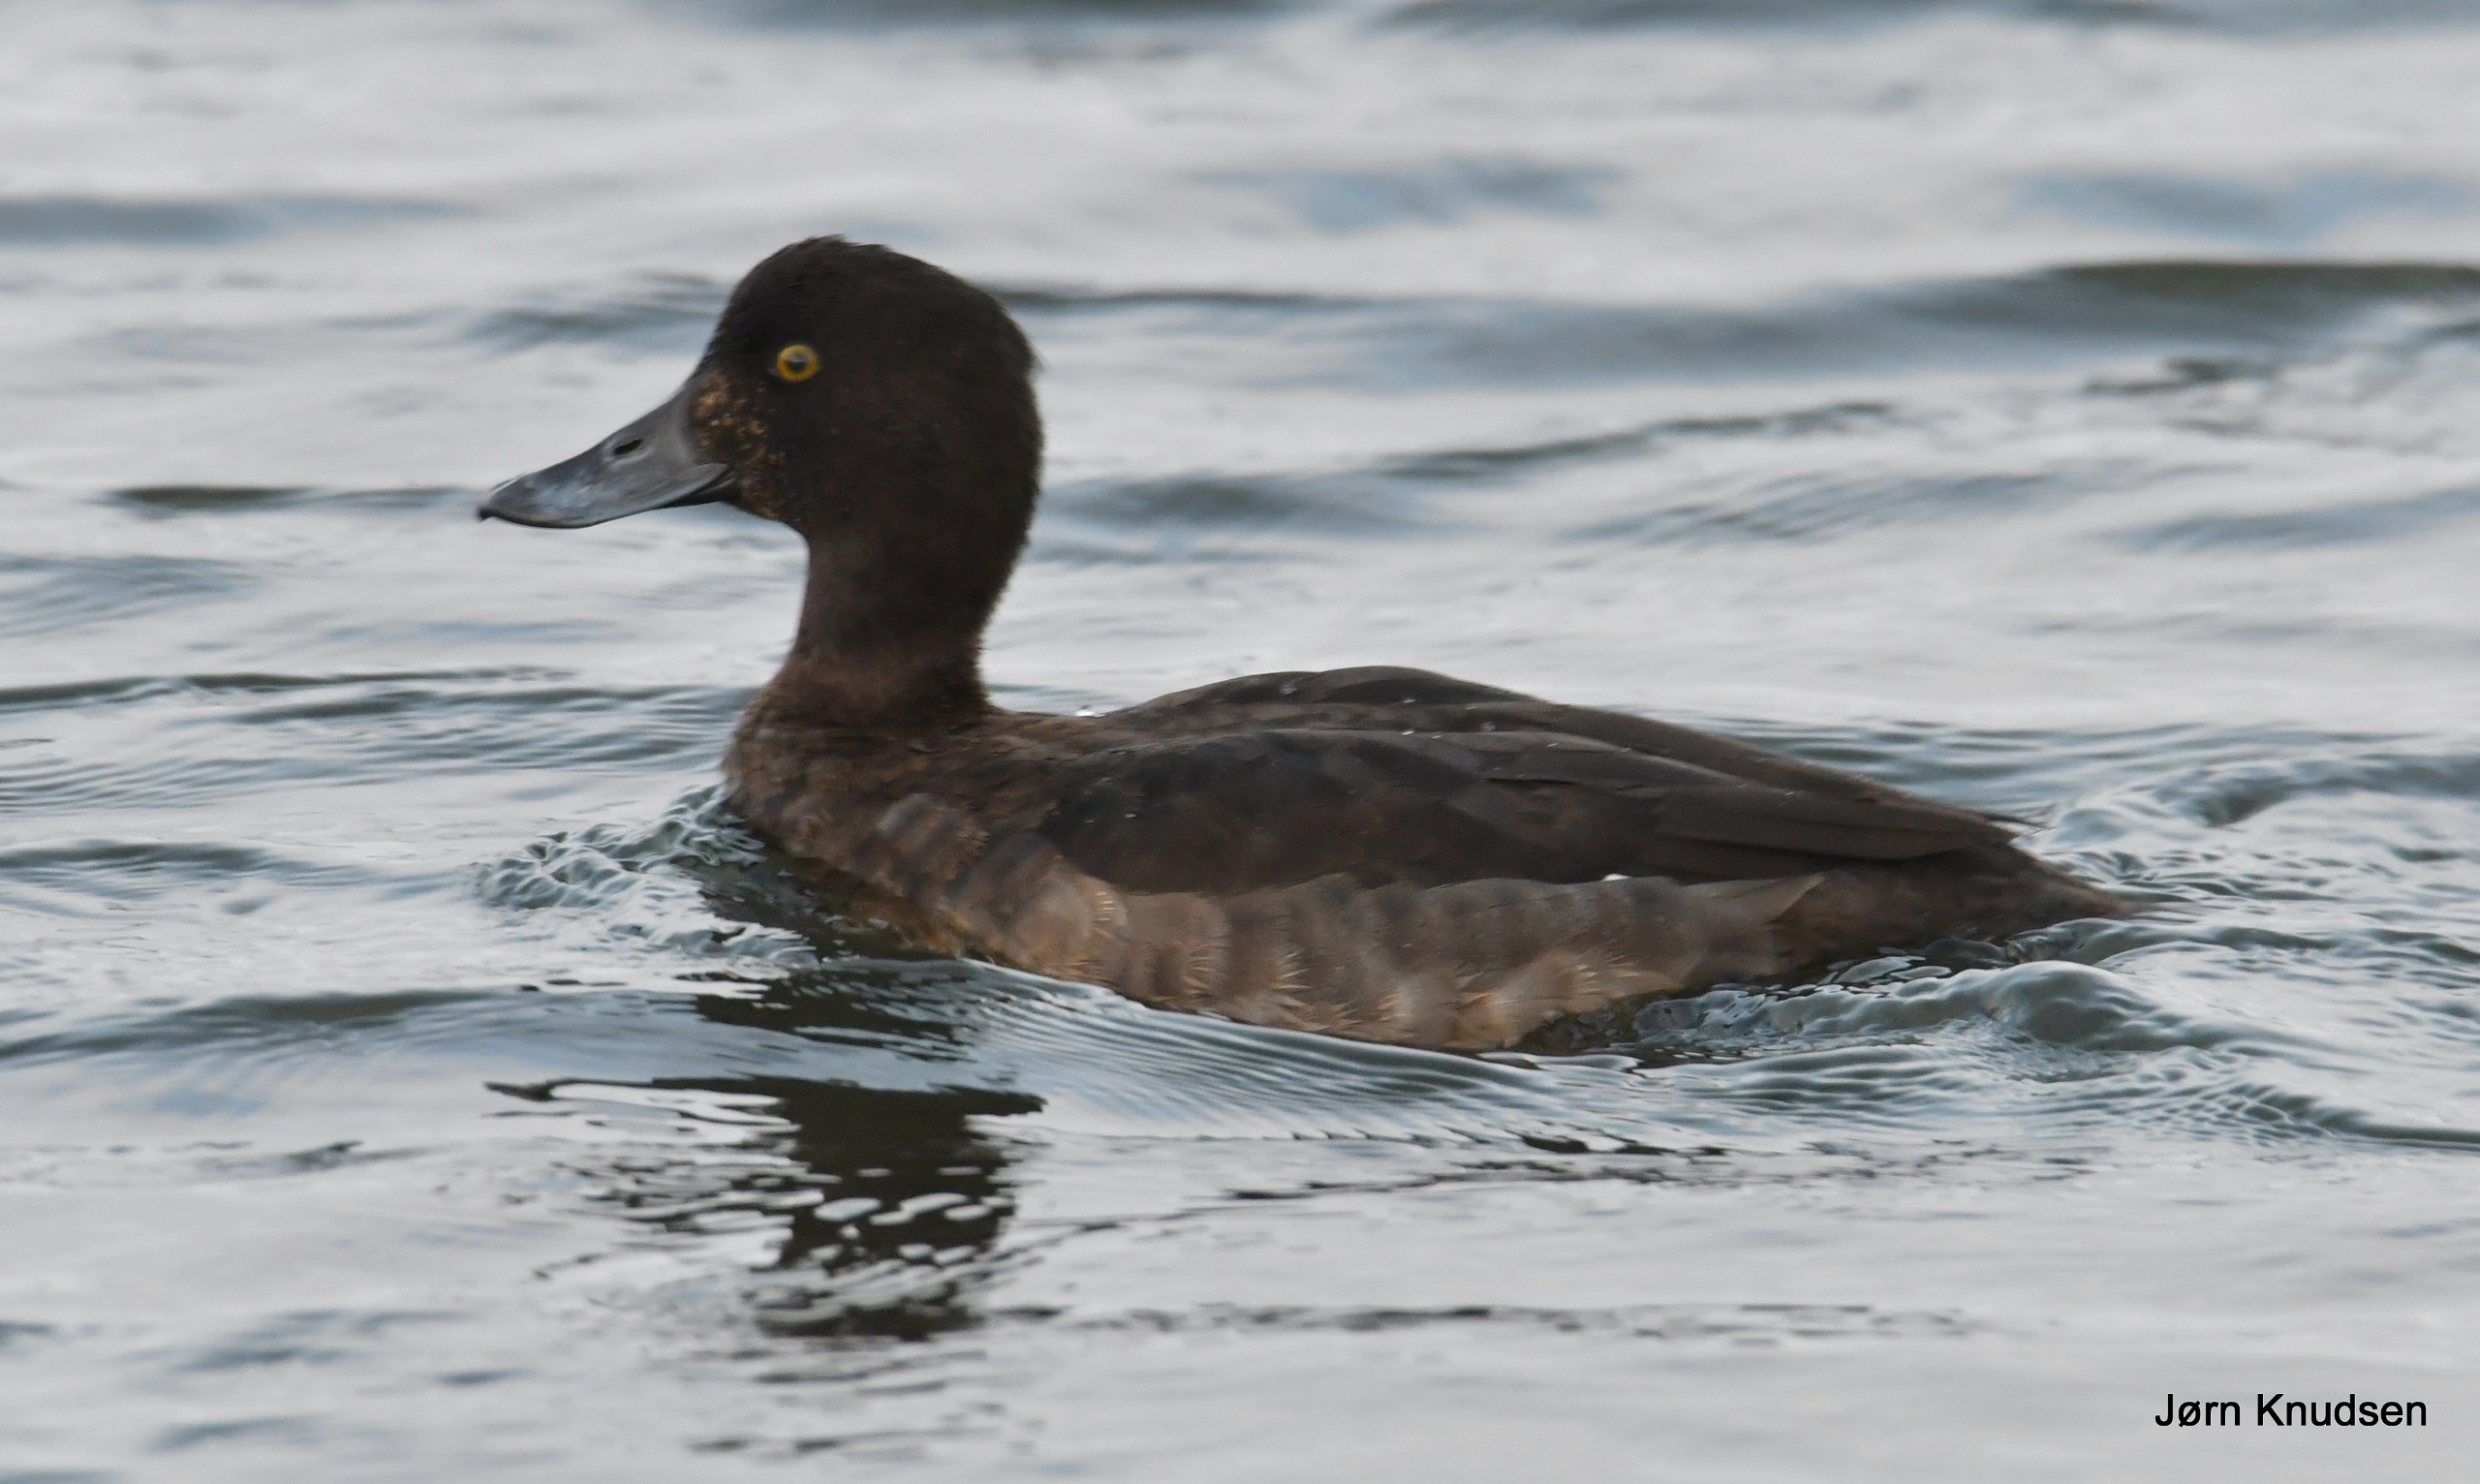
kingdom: Animalia
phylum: Chordata
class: Aves
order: Anseriformes
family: Anatidae
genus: Aythya
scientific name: Aythya fuligula
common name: Troldand
